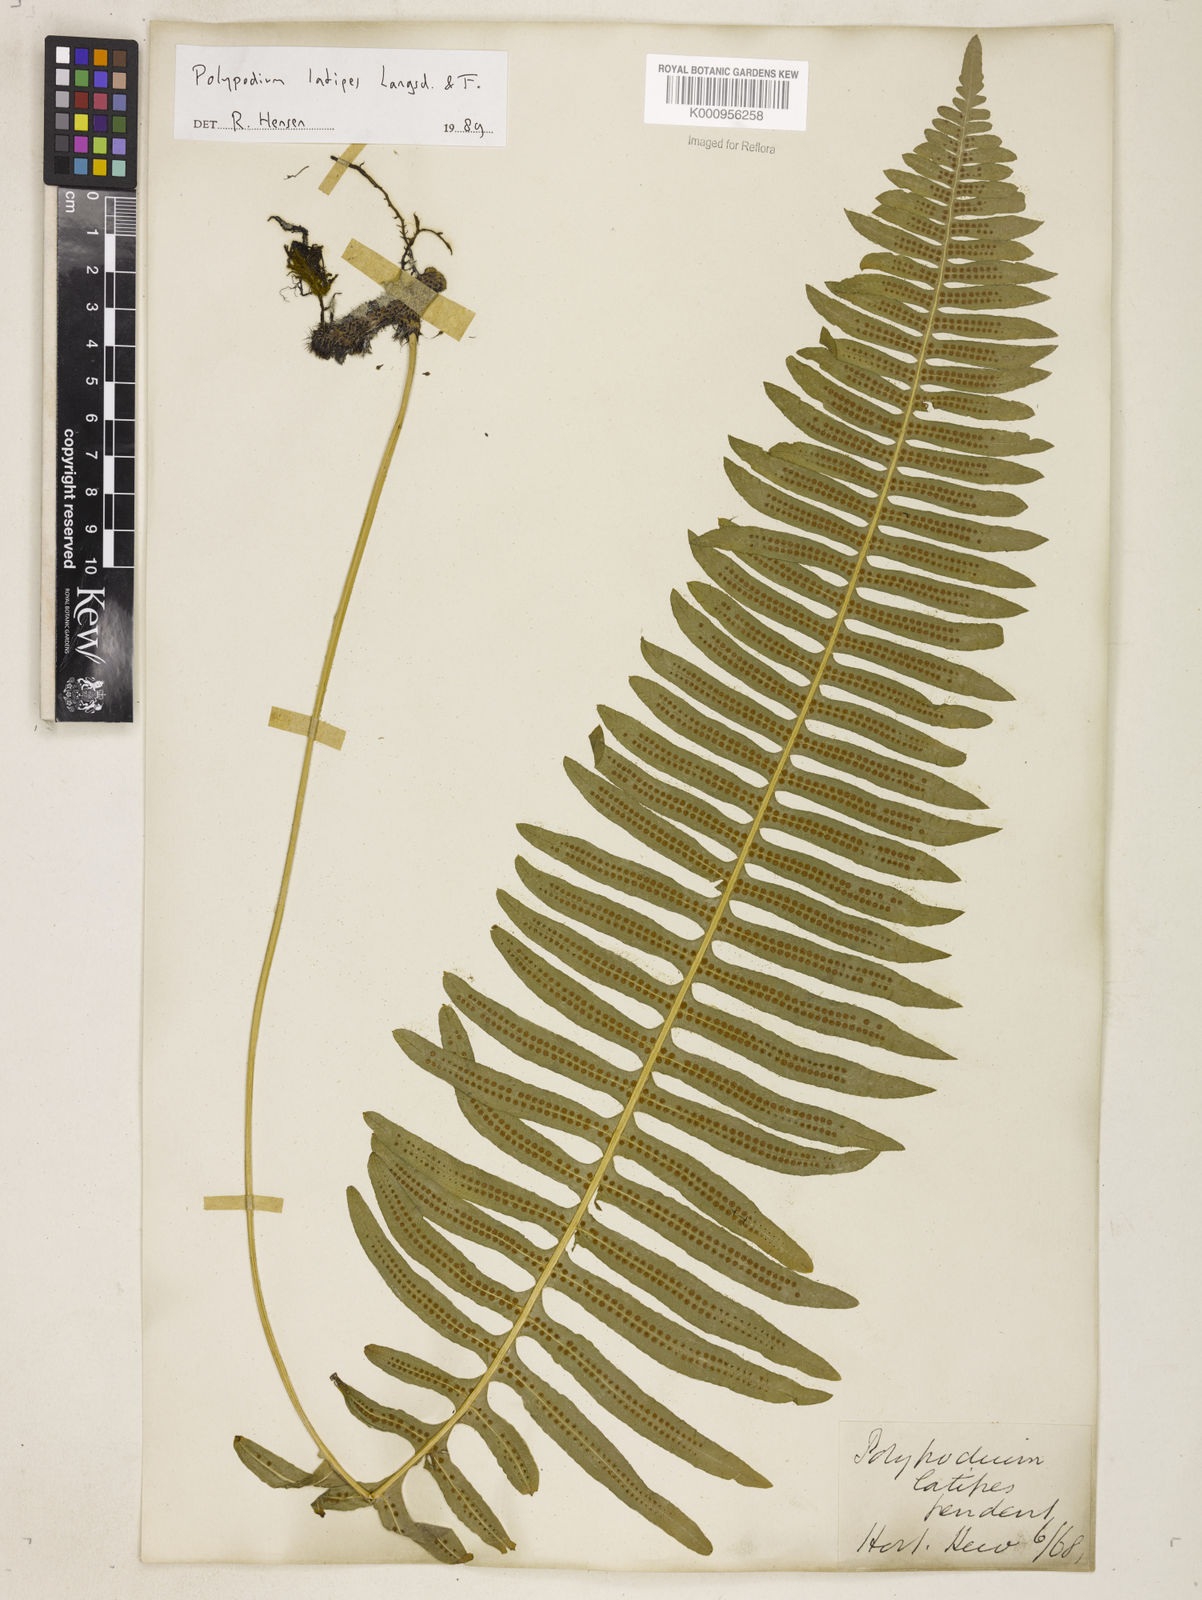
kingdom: Plantae
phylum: Tracheophyta
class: Polypodiopsida
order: Polypodiales
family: Polypodiaceae
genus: Serpocaulon
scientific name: Serpocaulon loriceum
